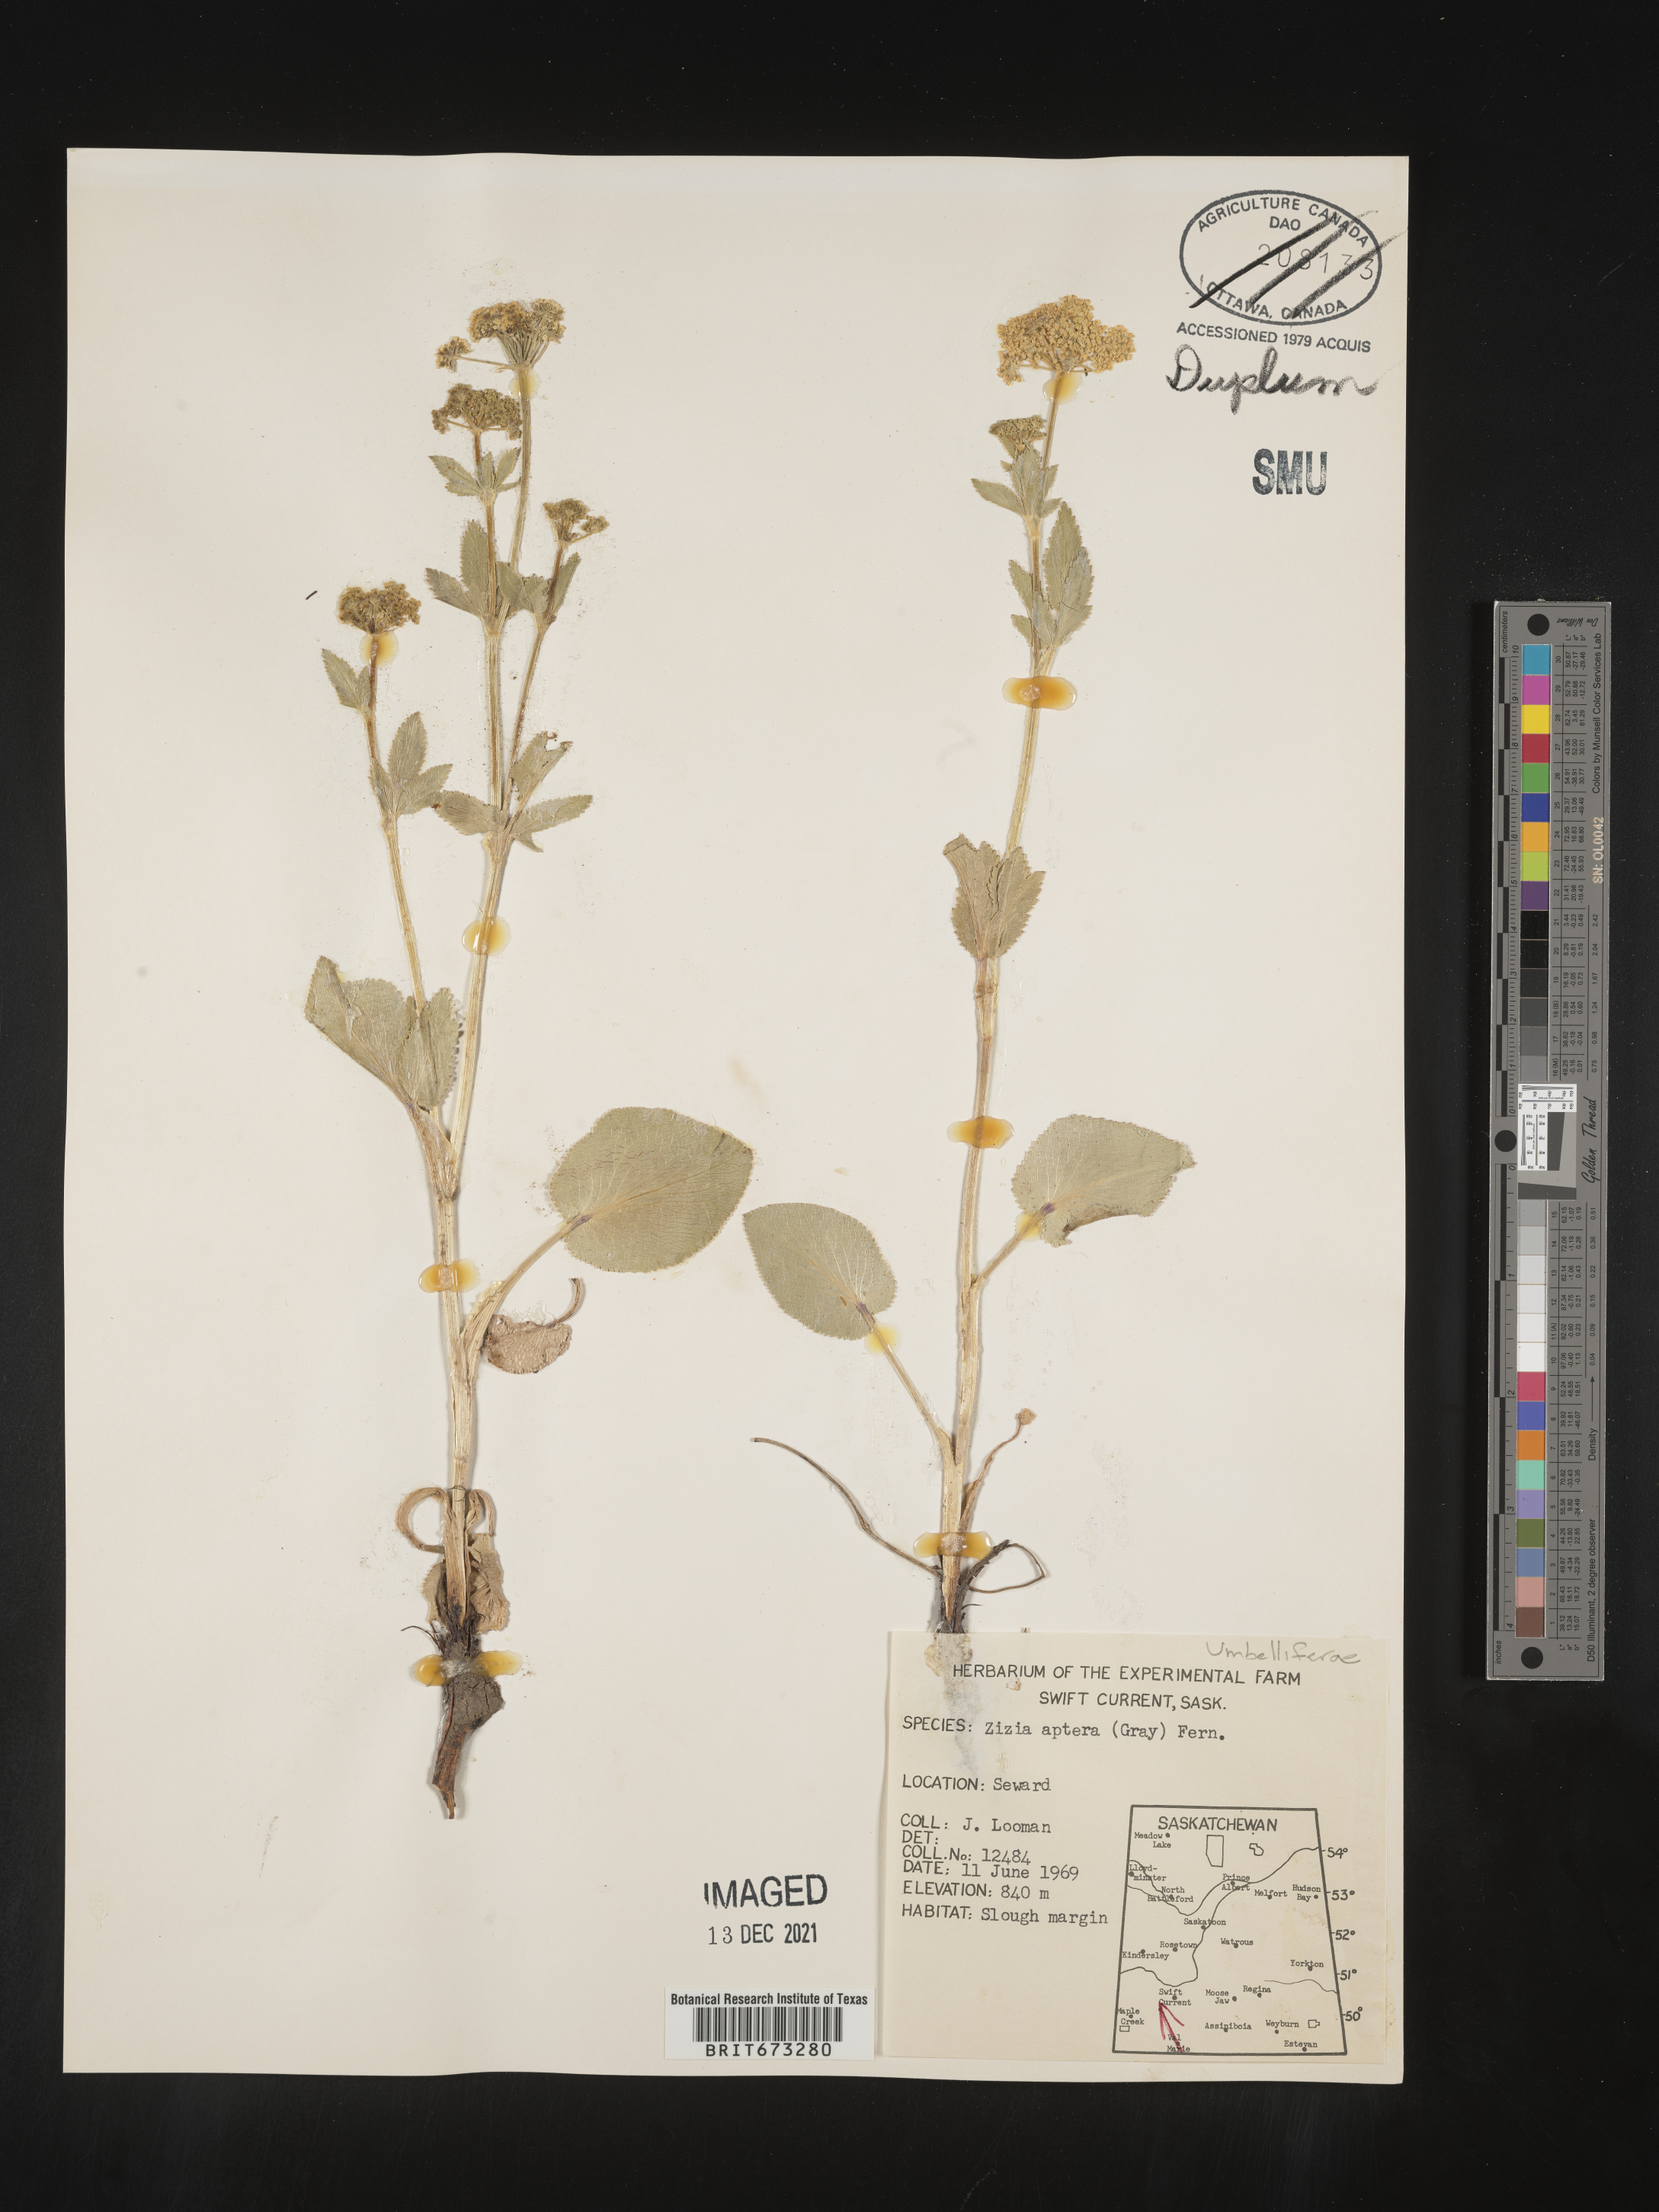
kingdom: Plantae
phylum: Tracheophyta
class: Magnoliopsida
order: Apiales
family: Apiaceae
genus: Zizia
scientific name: Zizia aptera
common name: Heart-leaved alexanders
